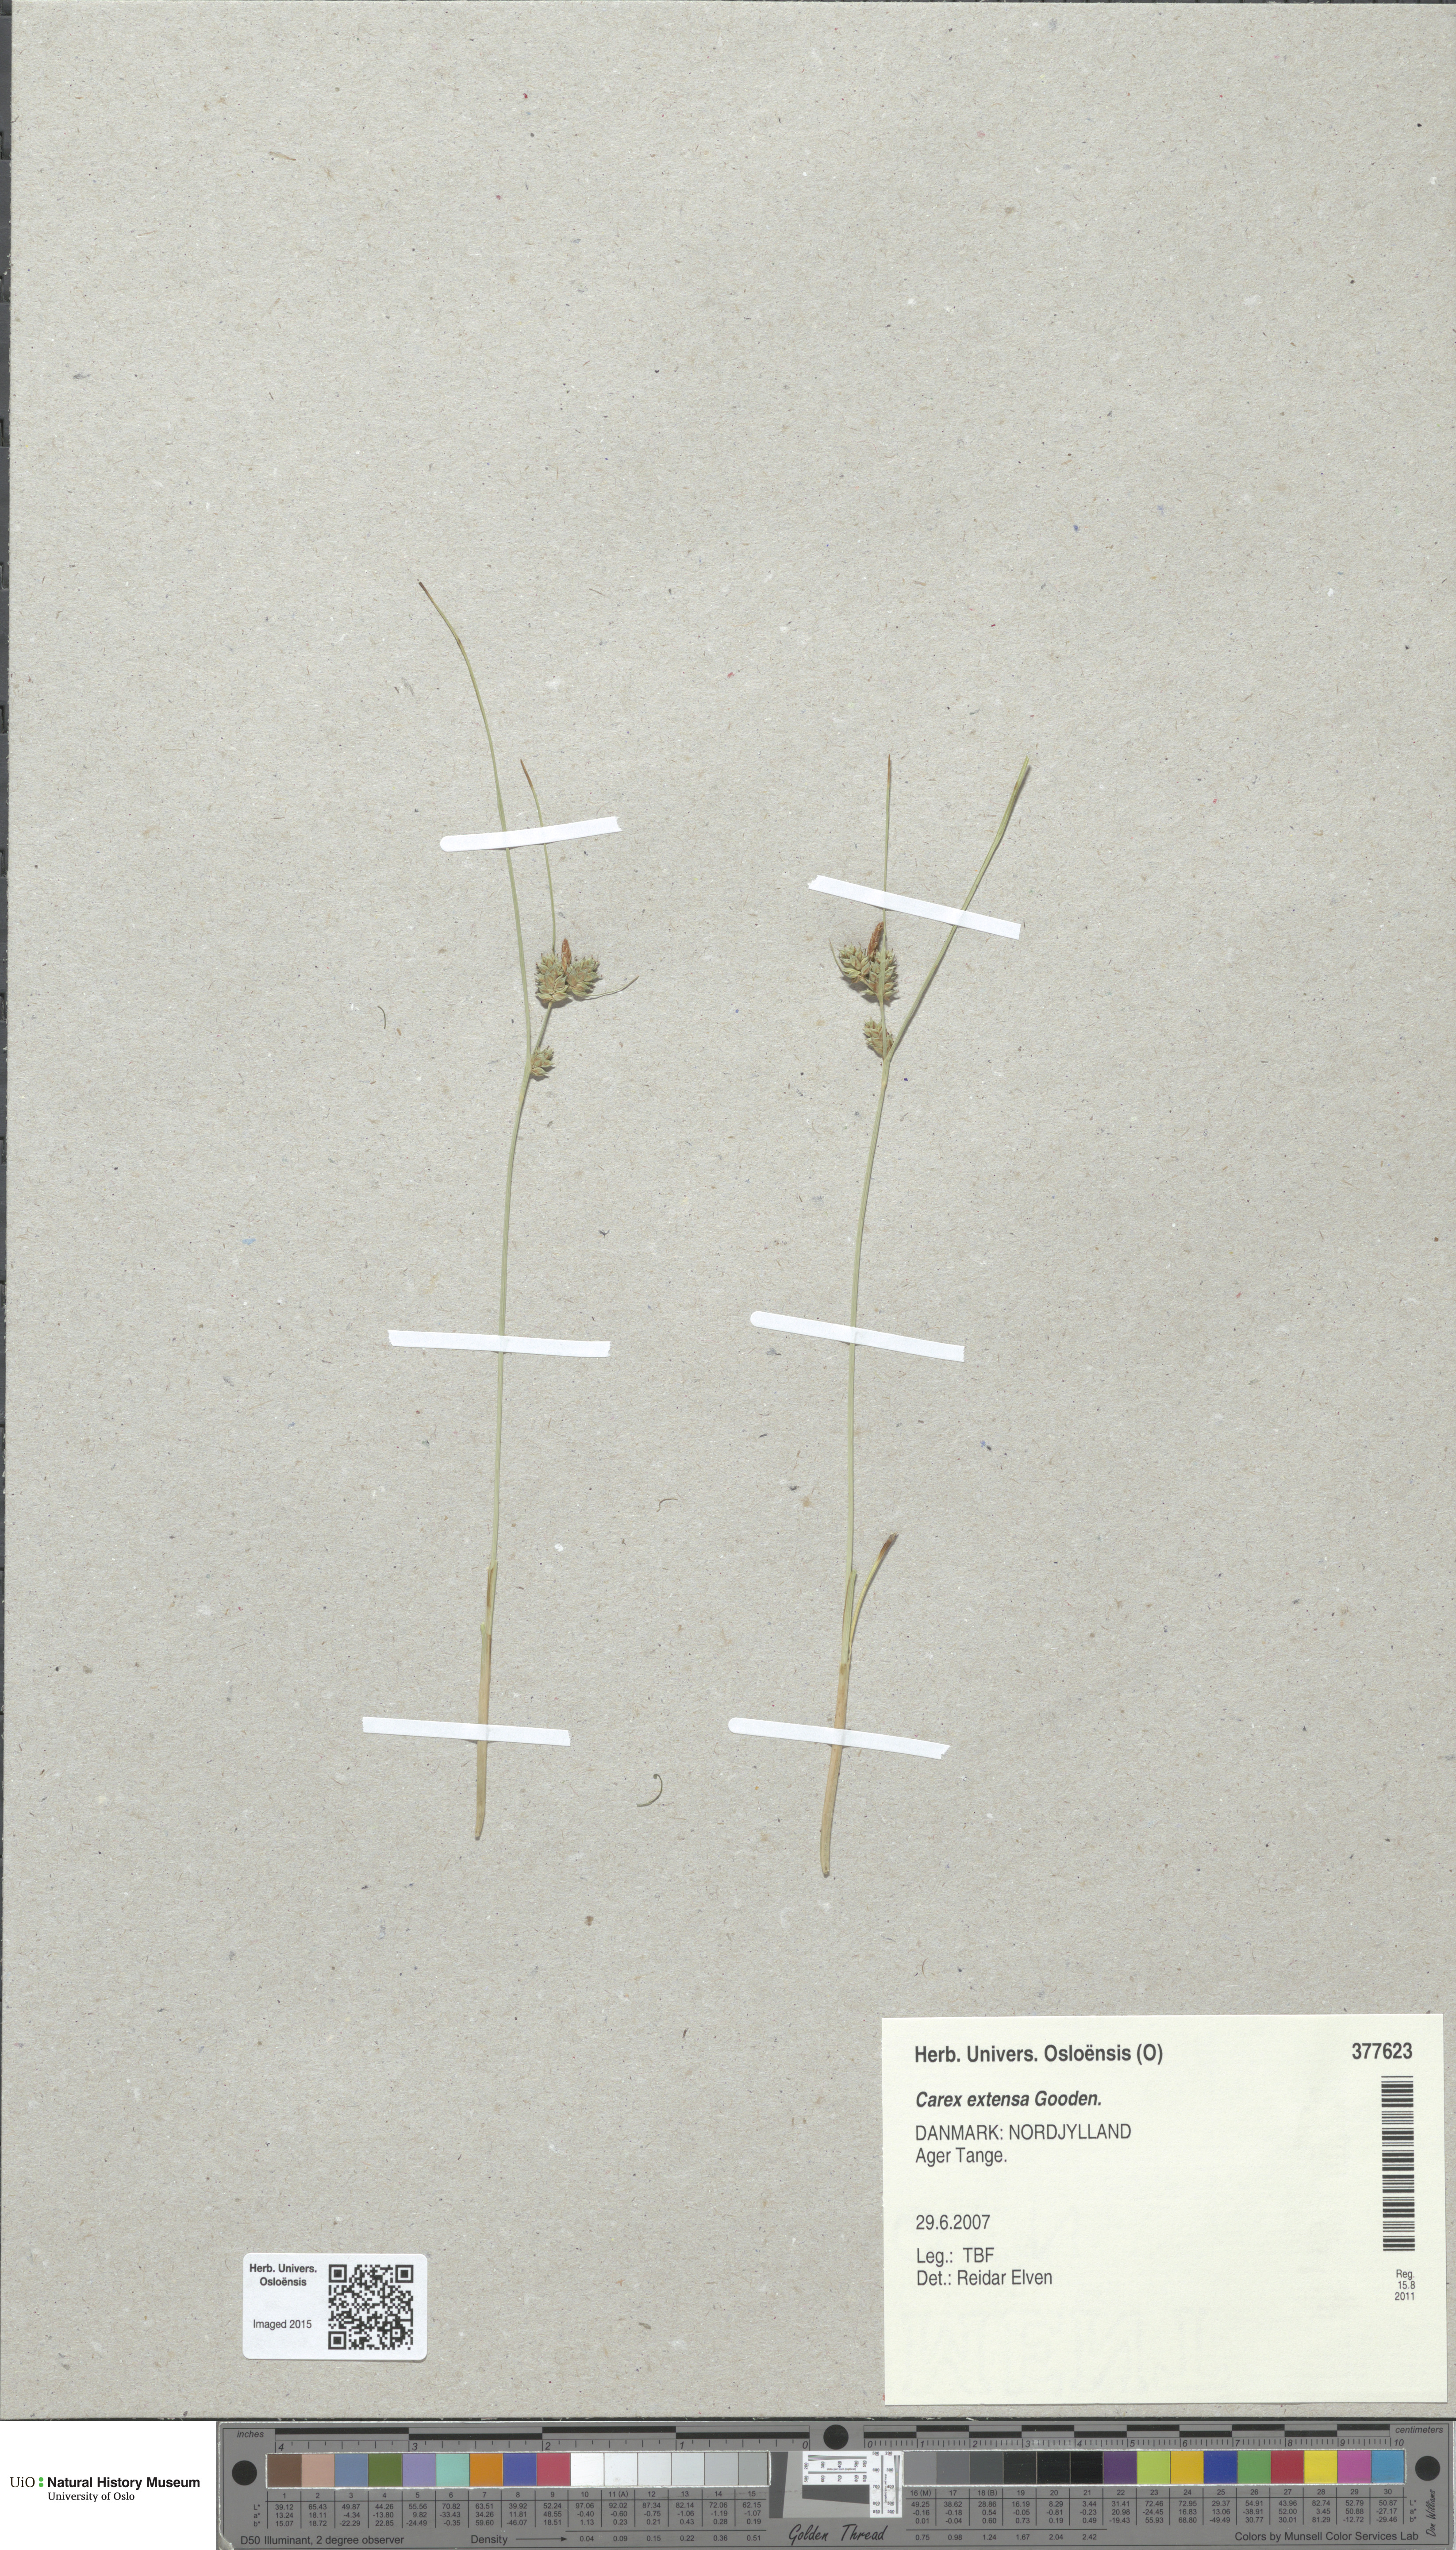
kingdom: Plantae
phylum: Tracheophyta
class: Liliopsida
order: Poales
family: Cyperaceae
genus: Carex
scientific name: Carex extensa
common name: Long-bracted sedge
